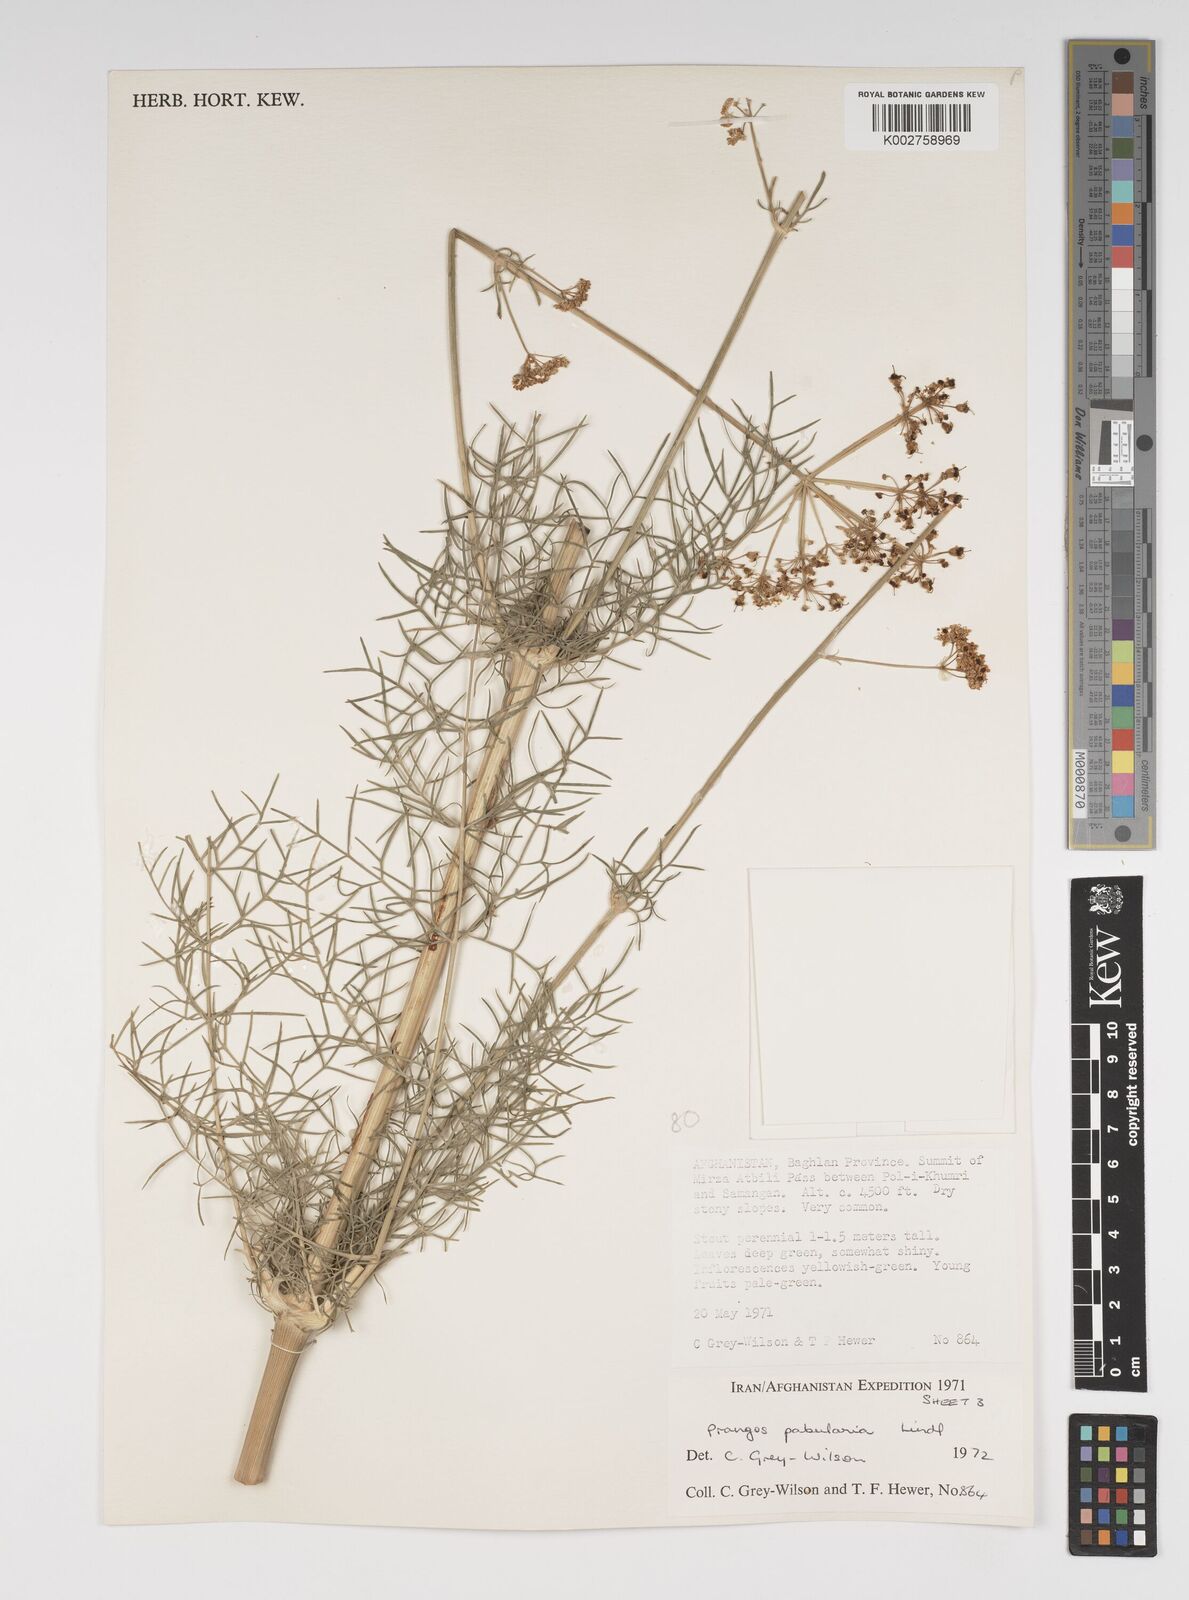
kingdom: Plantae
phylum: Tracheophyta
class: Magnoliopsida
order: Apiales
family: Apiaceae
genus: Prangos
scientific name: Prangos pabularia
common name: Yugan
